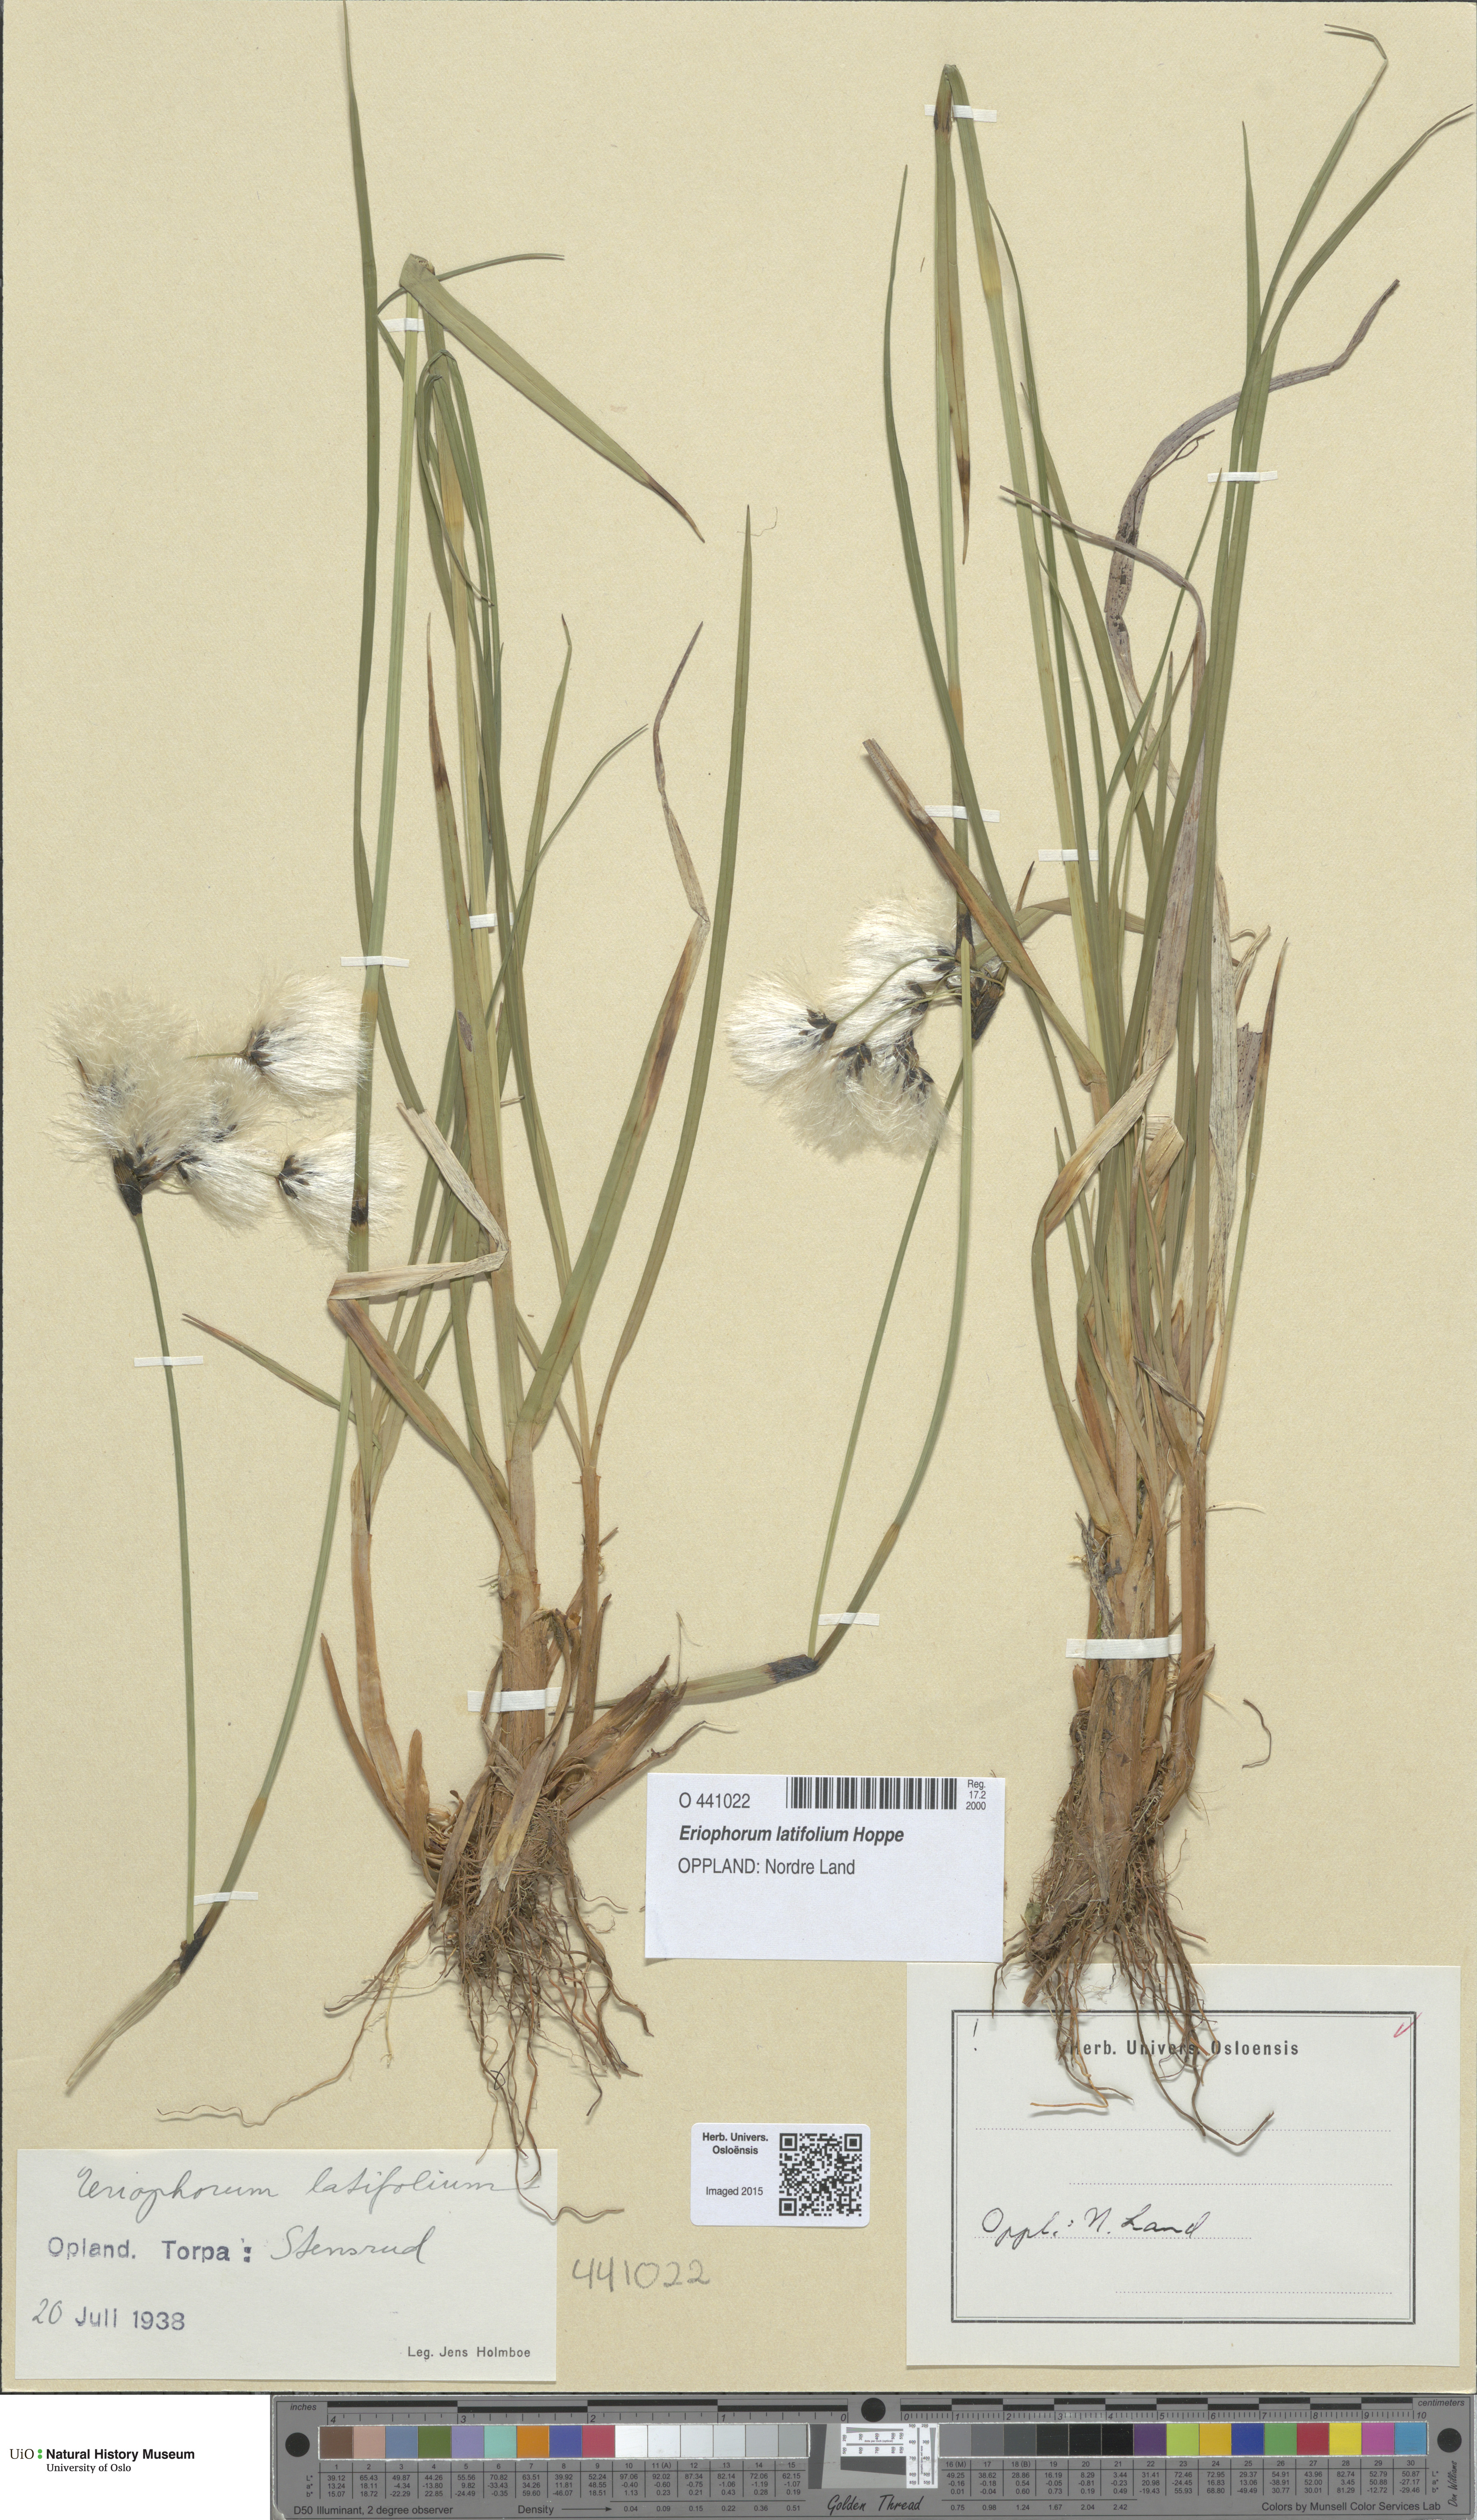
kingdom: Plantae
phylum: Tracheophyta
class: Liliopsida
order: Poales
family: Cyperaceae
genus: Eriophorum
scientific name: Eriophorum latifolium
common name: Broad-leaved cottongrass
